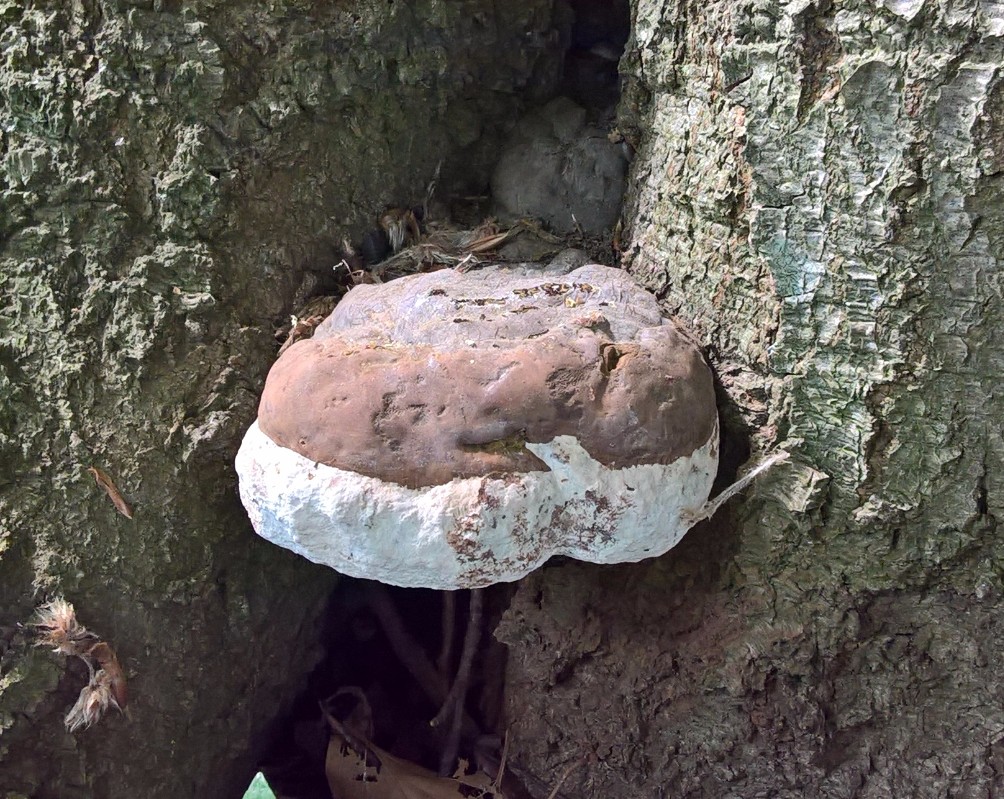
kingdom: Fungi
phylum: Basidiomycota
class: Agaricomycetes
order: Polyporales
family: Polyporaceae
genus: Ganoderma
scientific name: Ganoderma pfeifferi
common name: kobberrød lakporesvamp
